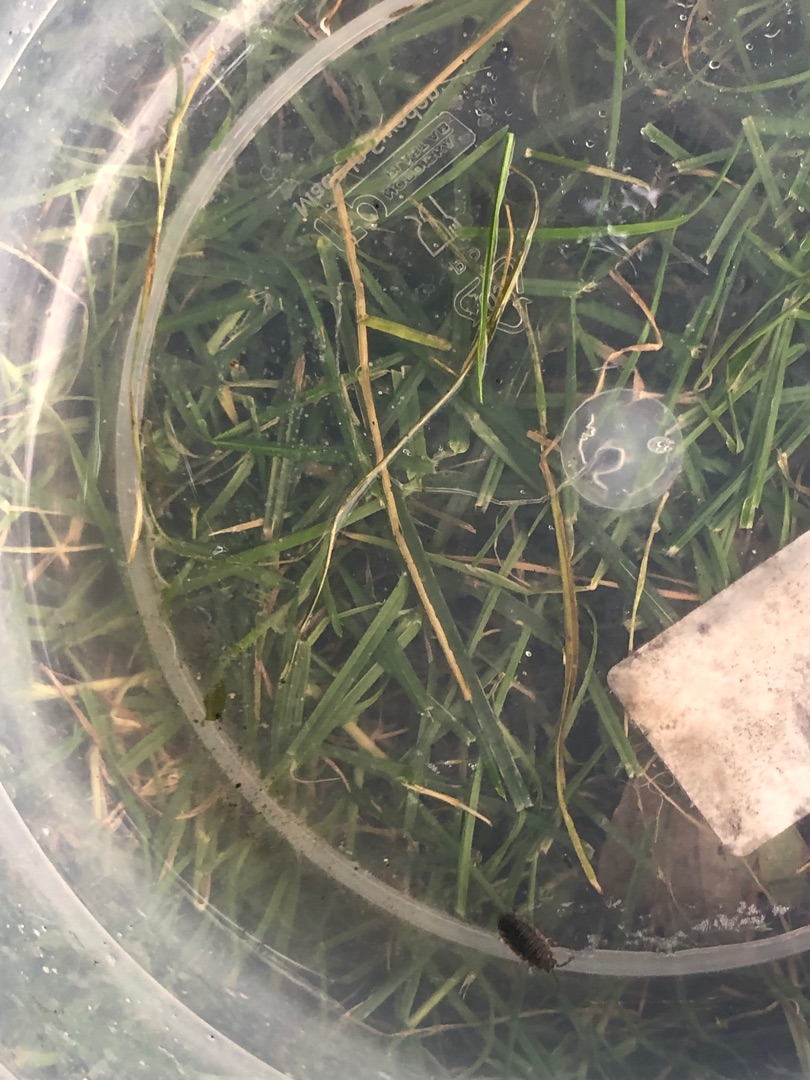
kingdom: Animalia
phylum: Arthropoda
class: Malacostraca
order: Isopoda
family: Porcellionidae
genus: Porcellio
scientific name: Porcellio scaber
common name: Grå bænkebider
